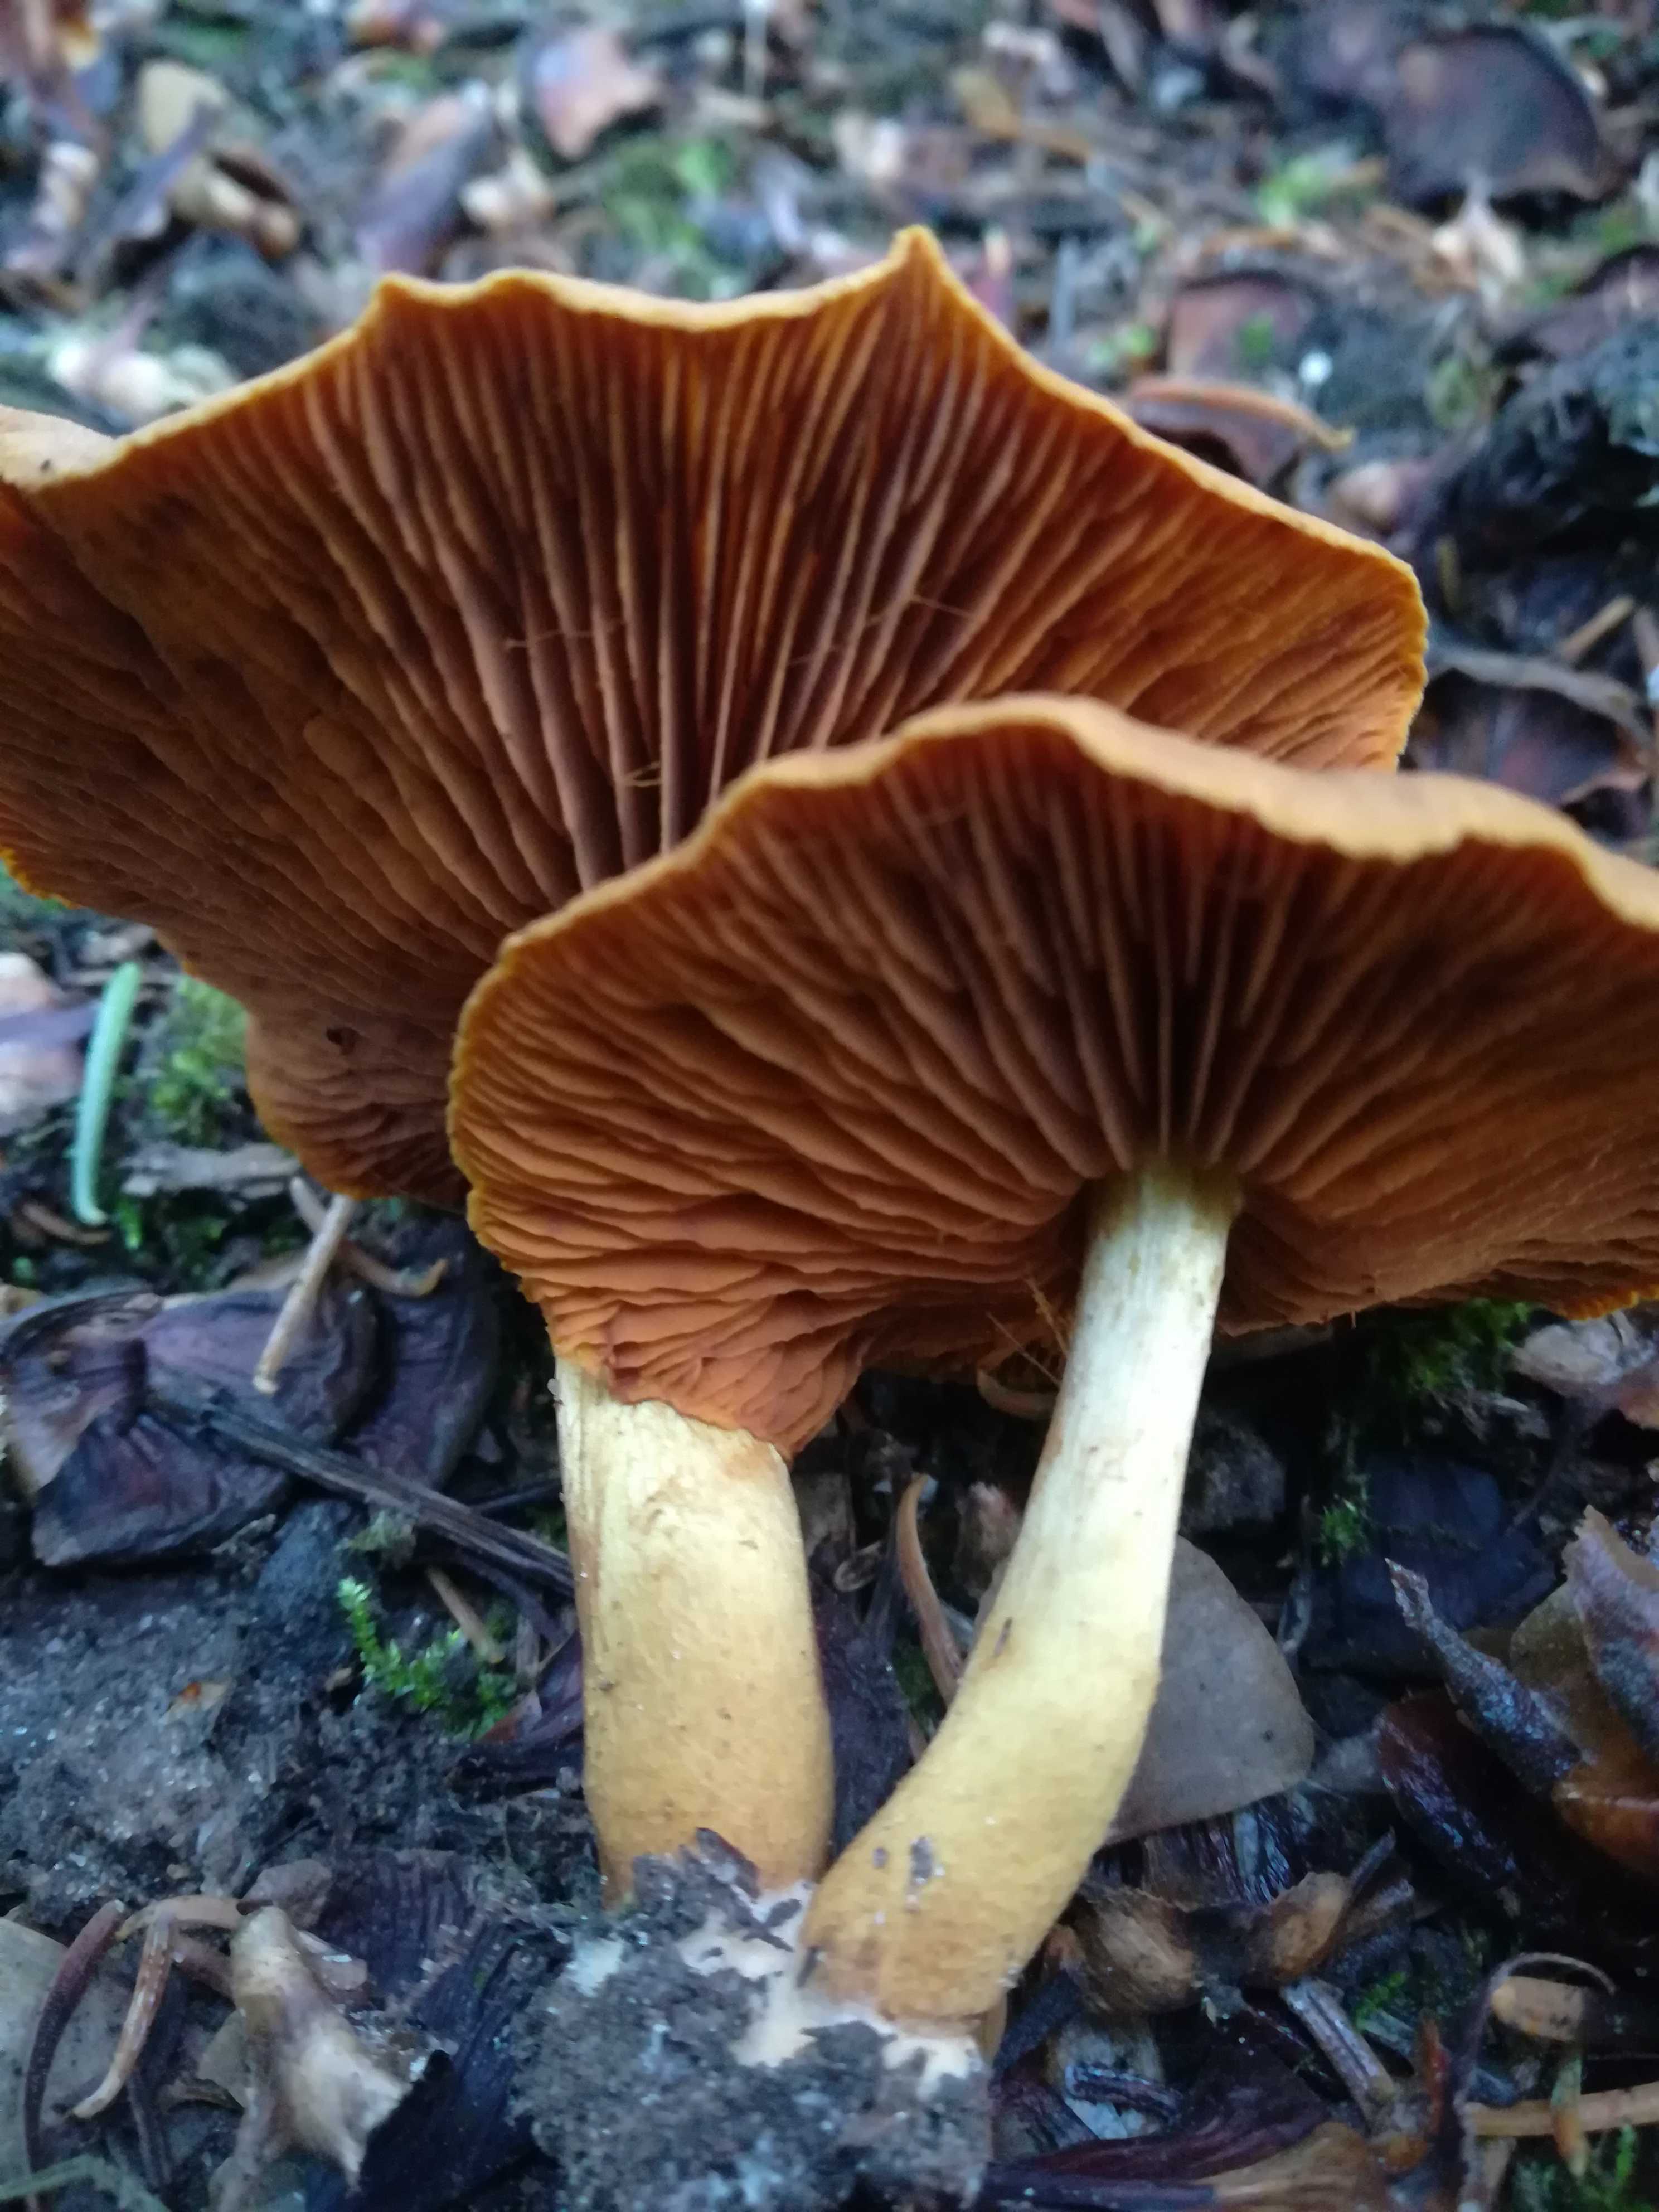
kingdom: Fungi
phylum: Basidiomycota
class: Agaricomycetes
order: Agaricales
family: Cortinariaceae
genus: Cortinarius
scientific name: Cortinarius
